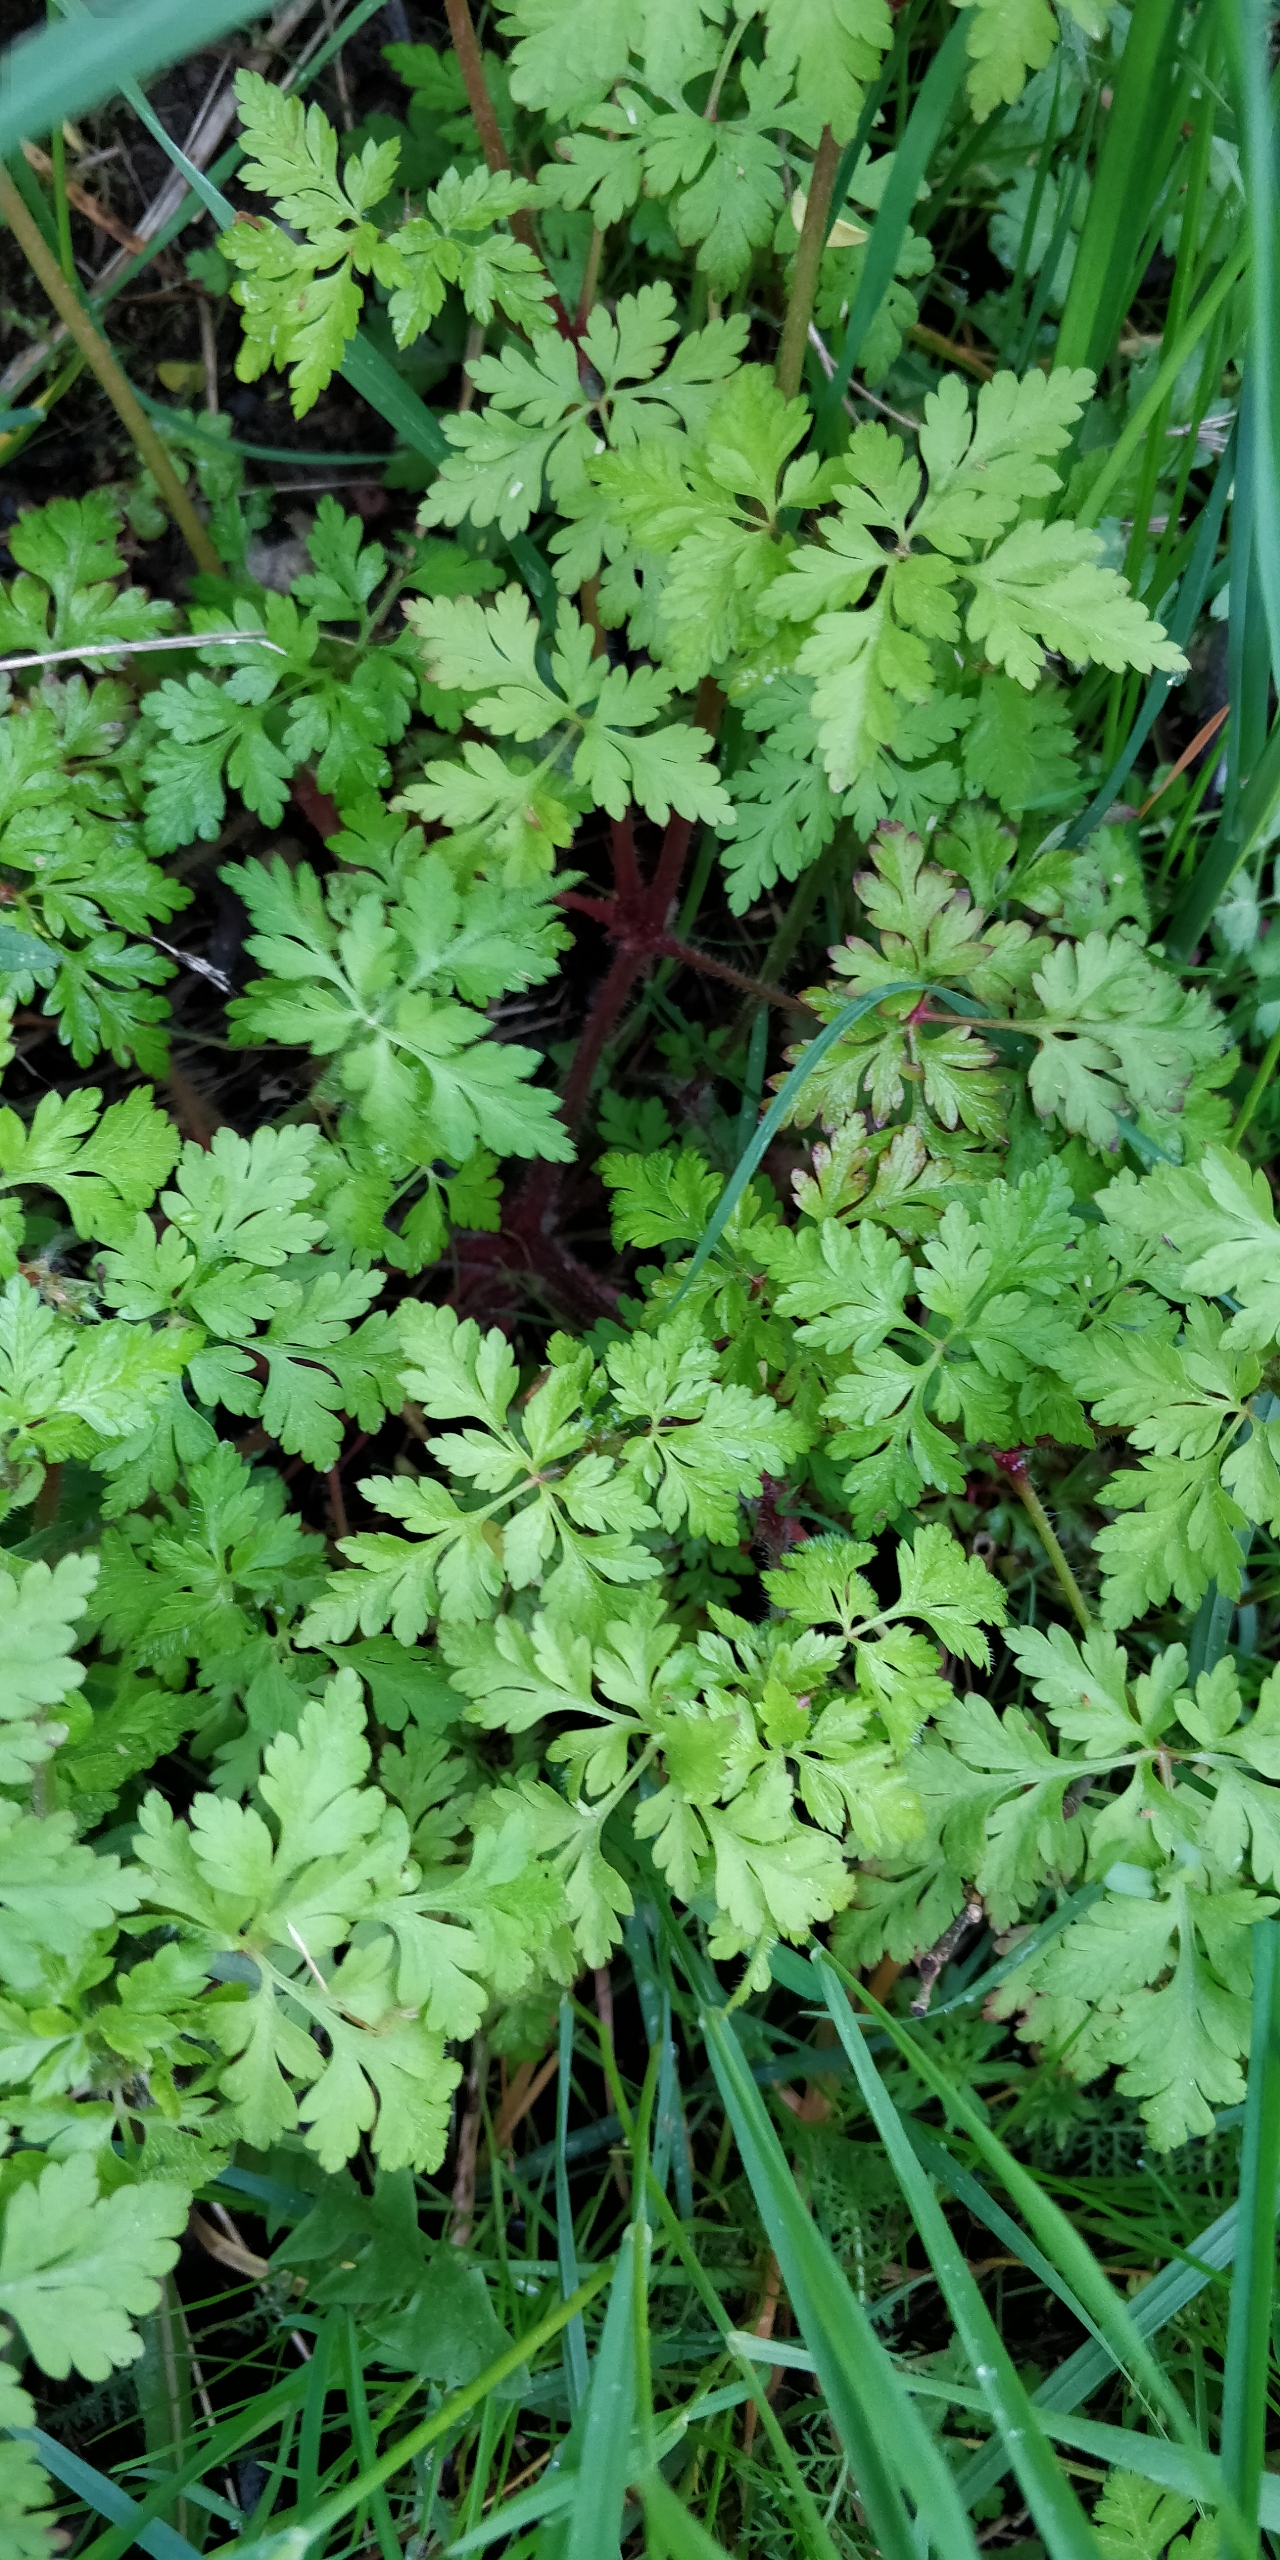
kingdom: Plantae
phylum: Tracheophyta
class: Magnoliopsida
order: Geraniales
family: Geraniaceae
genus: Geranium
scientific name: Geranium robertianum
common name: Stinkende storkenæb
